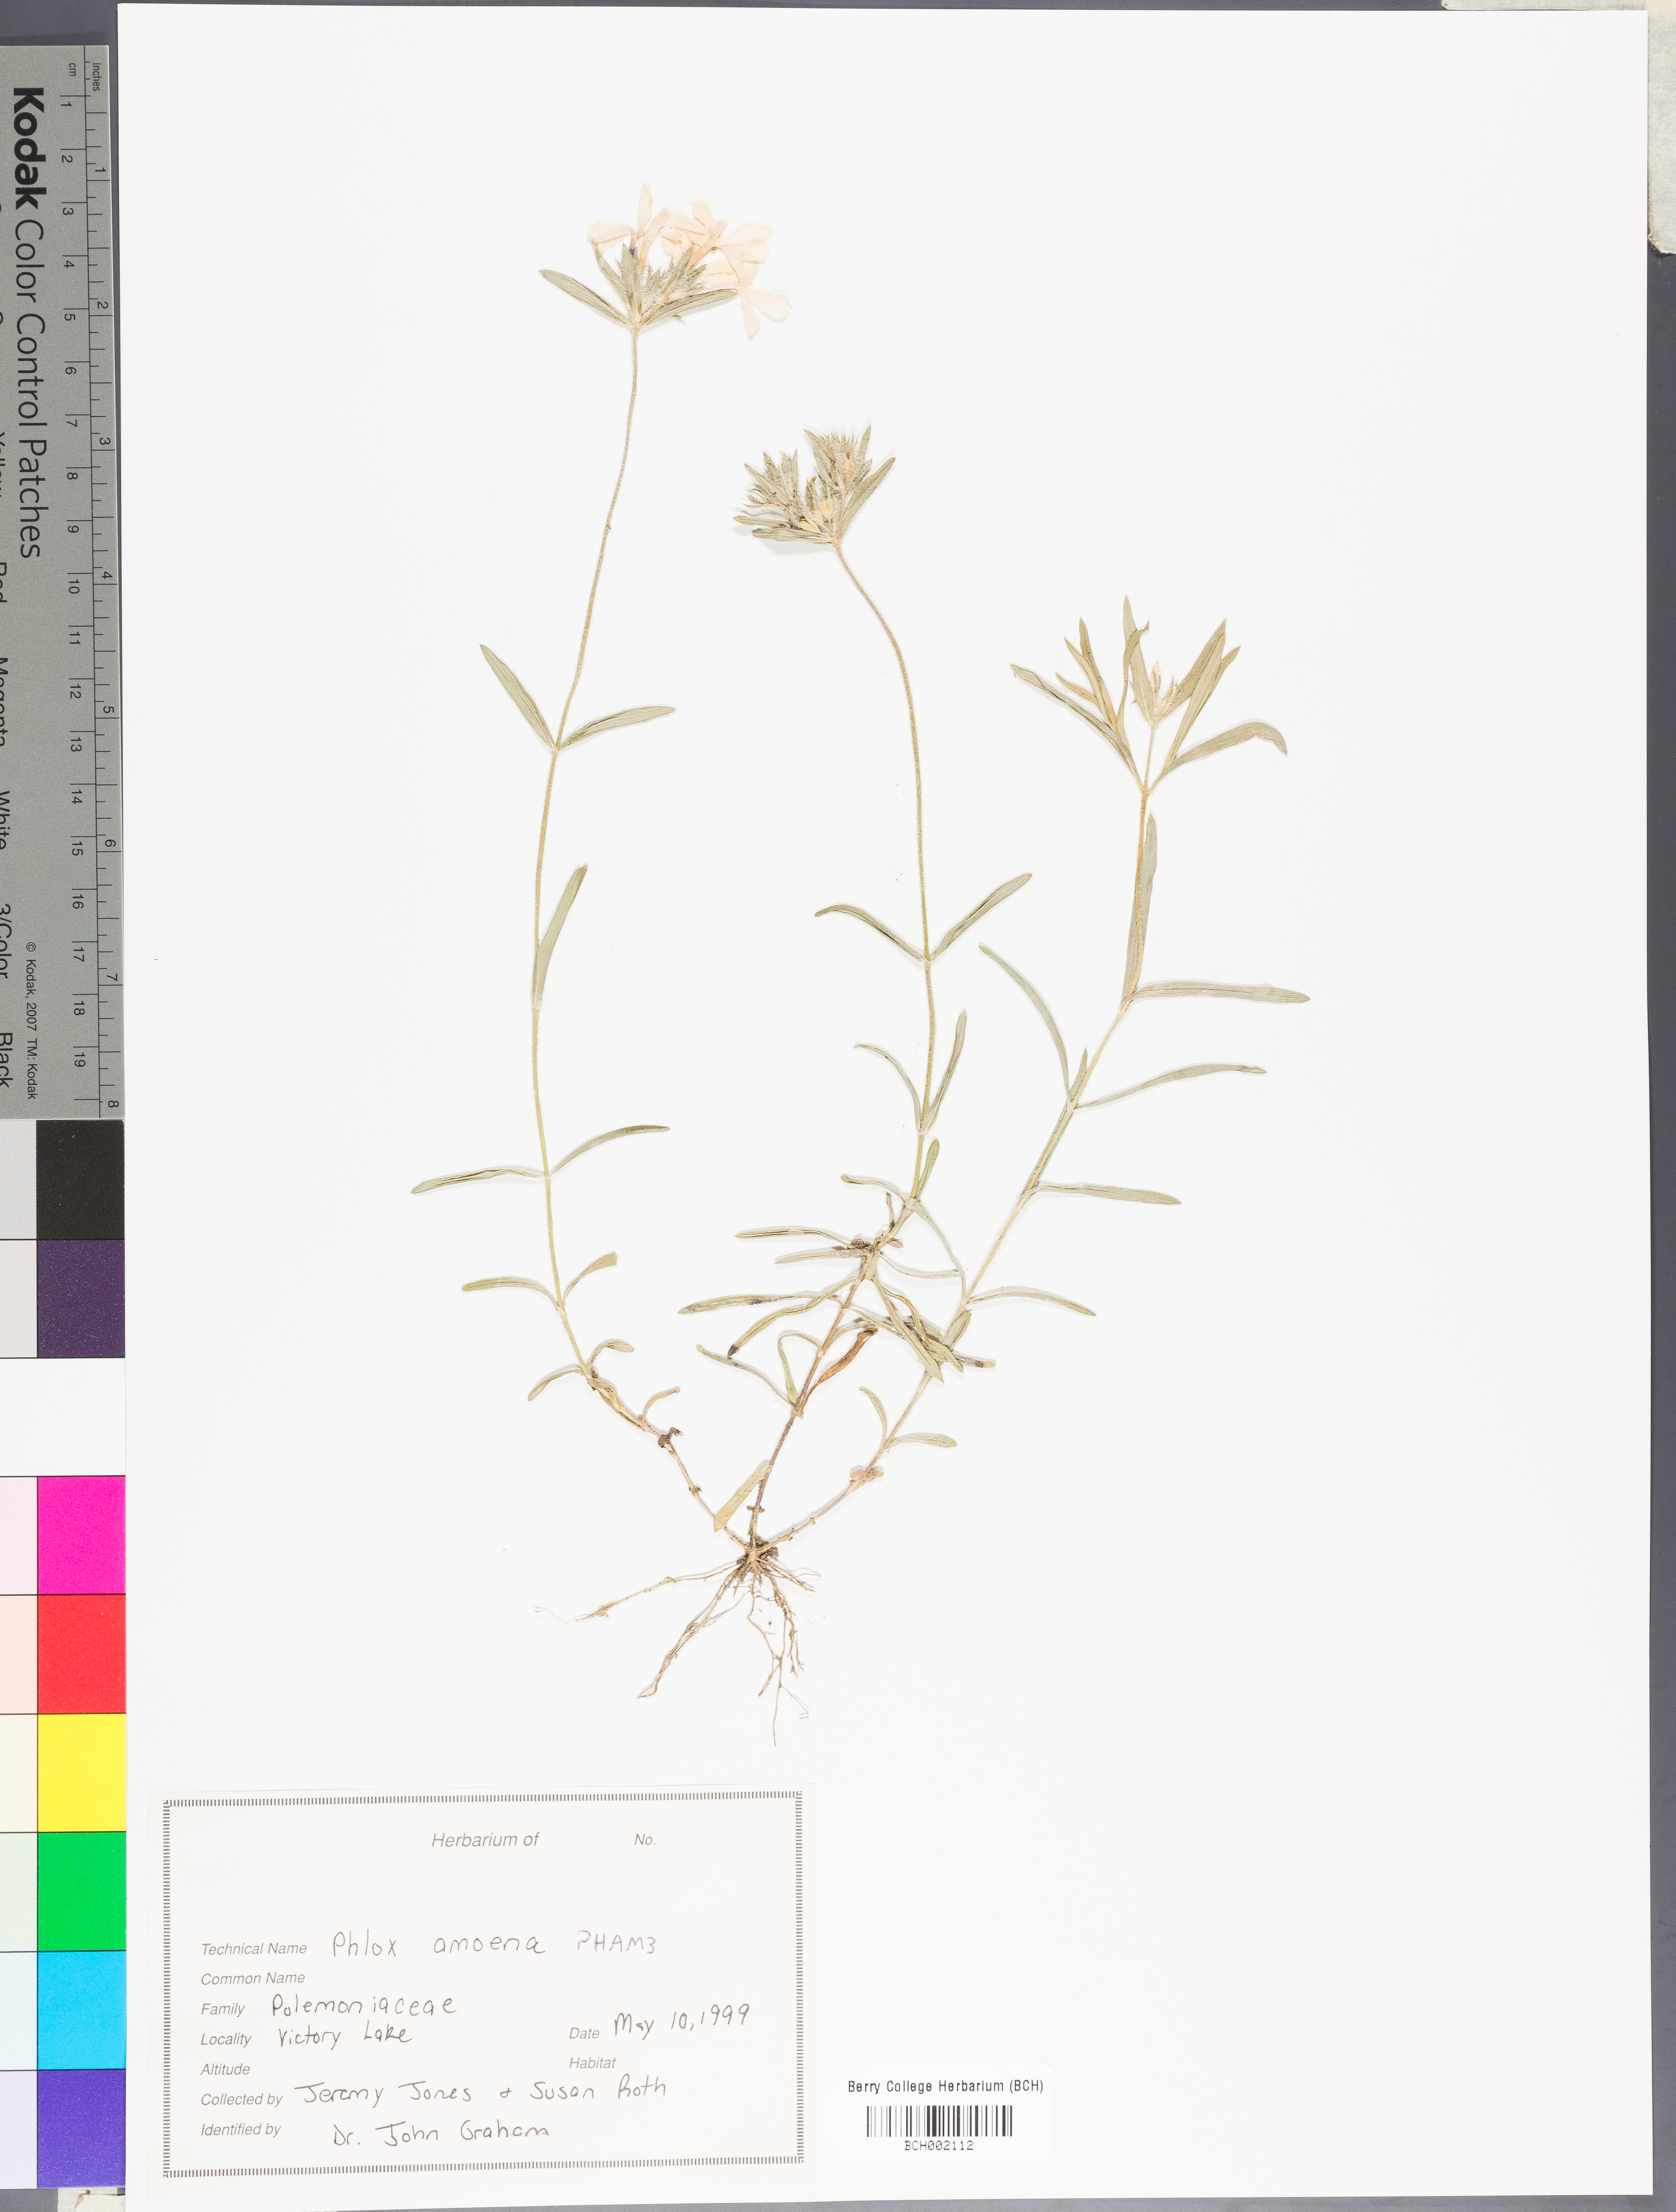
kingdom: Plantae
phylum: Tracheophyta
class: Magnoliopsida
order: Ericales
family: Polemoniaceae
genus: Phlox
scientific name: Phlox amoena
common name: Hairy phlox
